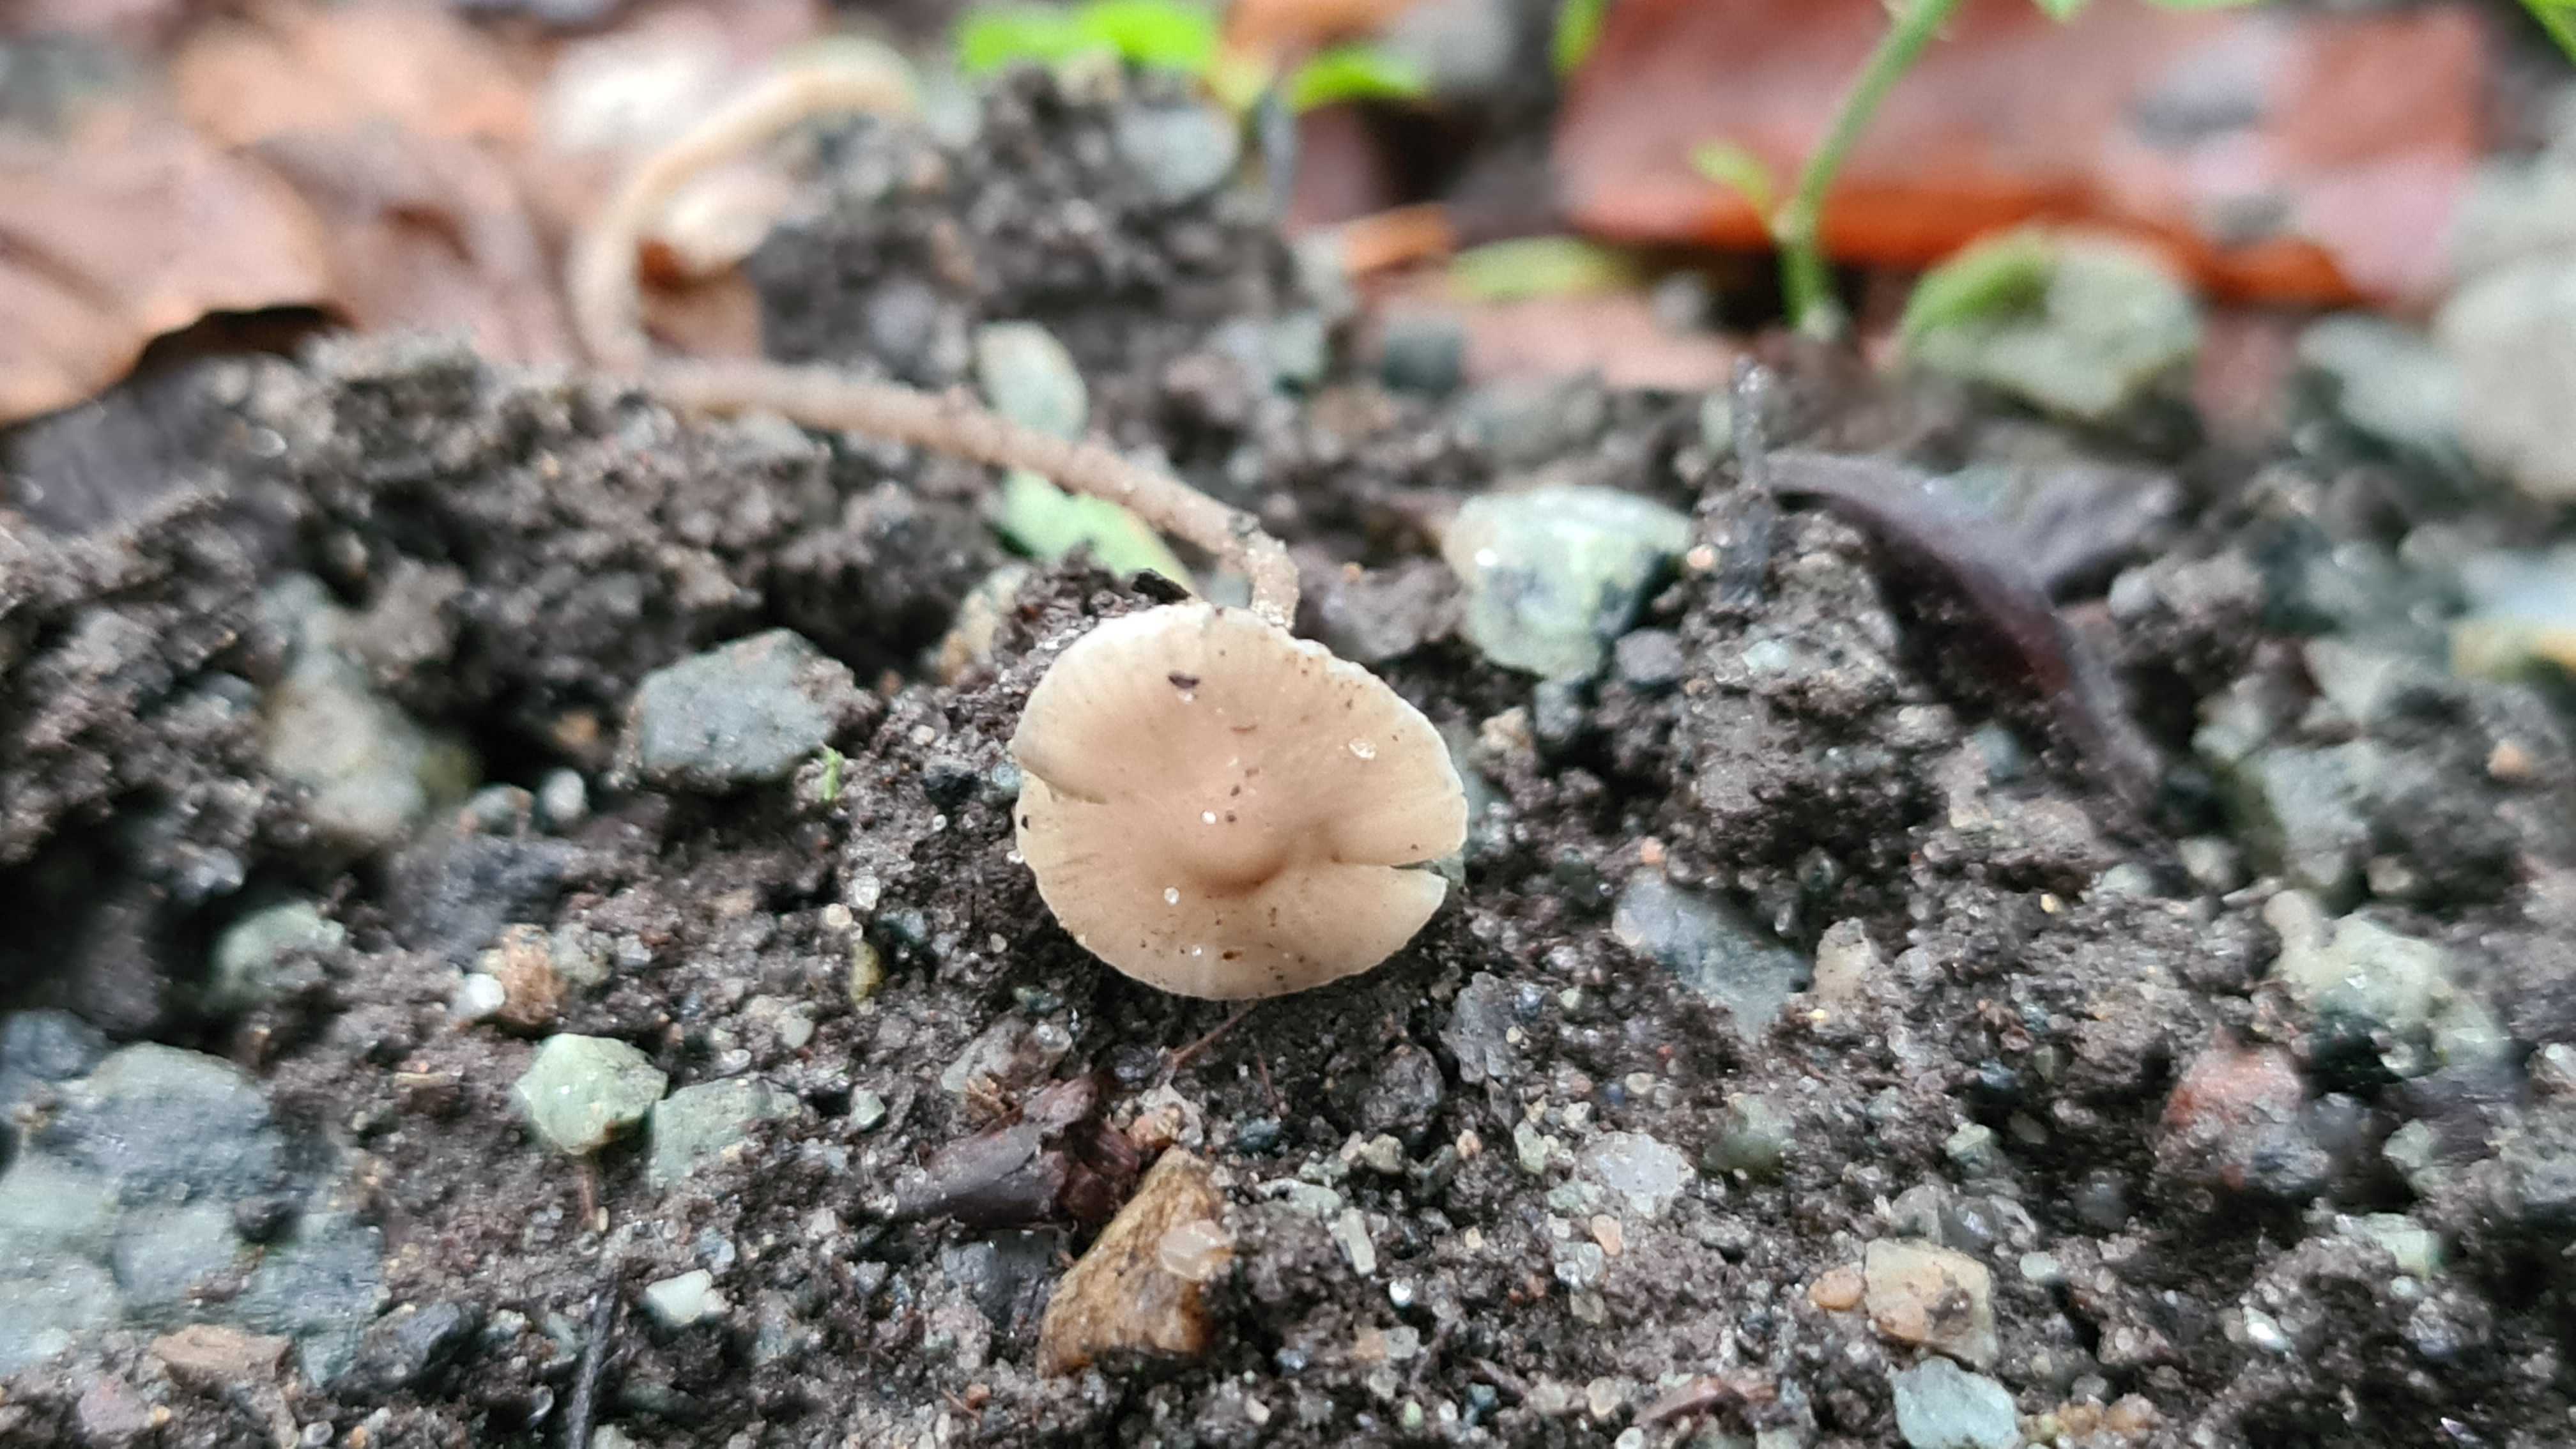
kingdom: Fungi
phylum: Basidiomycota
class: Agaricomycetes
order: Agaricales
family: Mycenaceae
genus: Mycena
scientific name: Mycena vitilis
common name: blankstokket huesvamp
